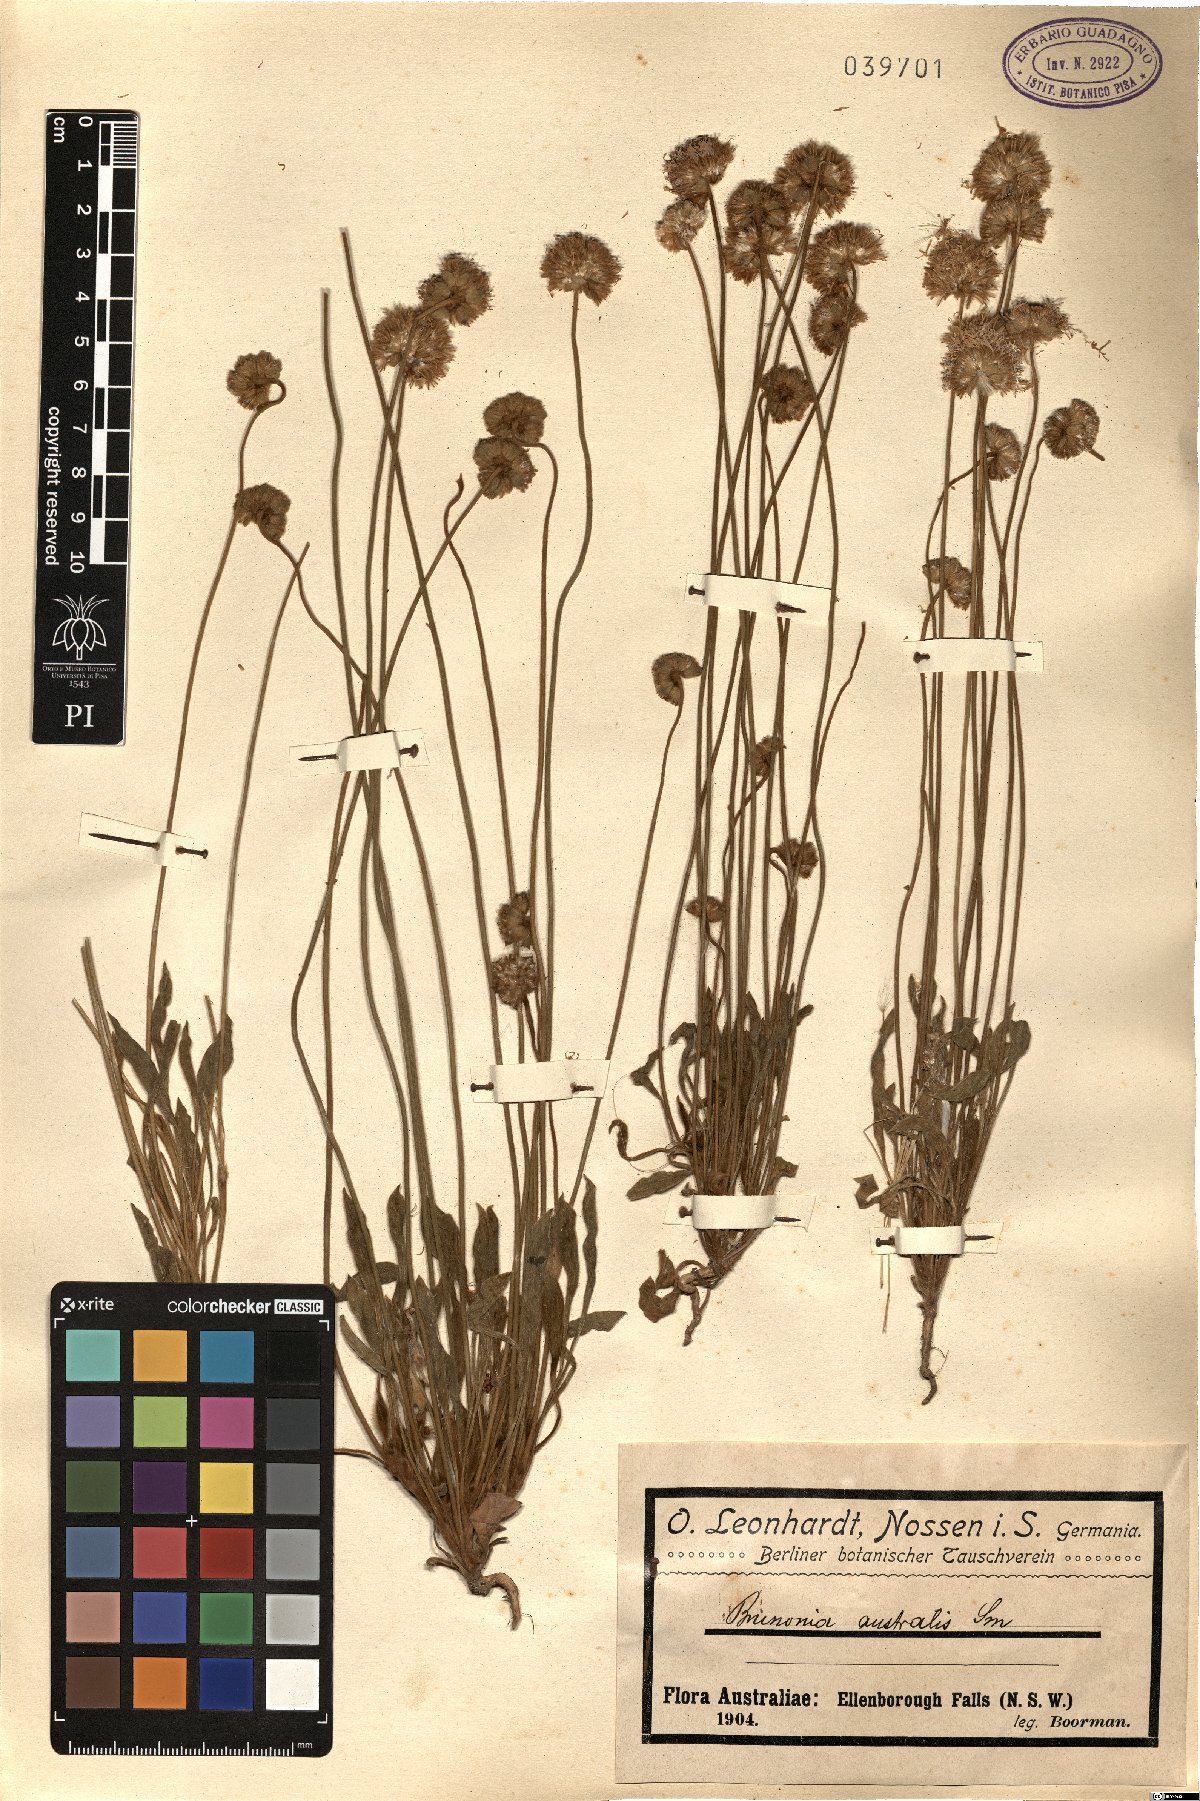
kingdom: Plantae
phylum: Tracheophyta
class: Magnoliopsida
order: Asterales
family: Goodeniaceae
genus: Brunonia
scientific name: Brunonia australis
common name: Blue pincushion
